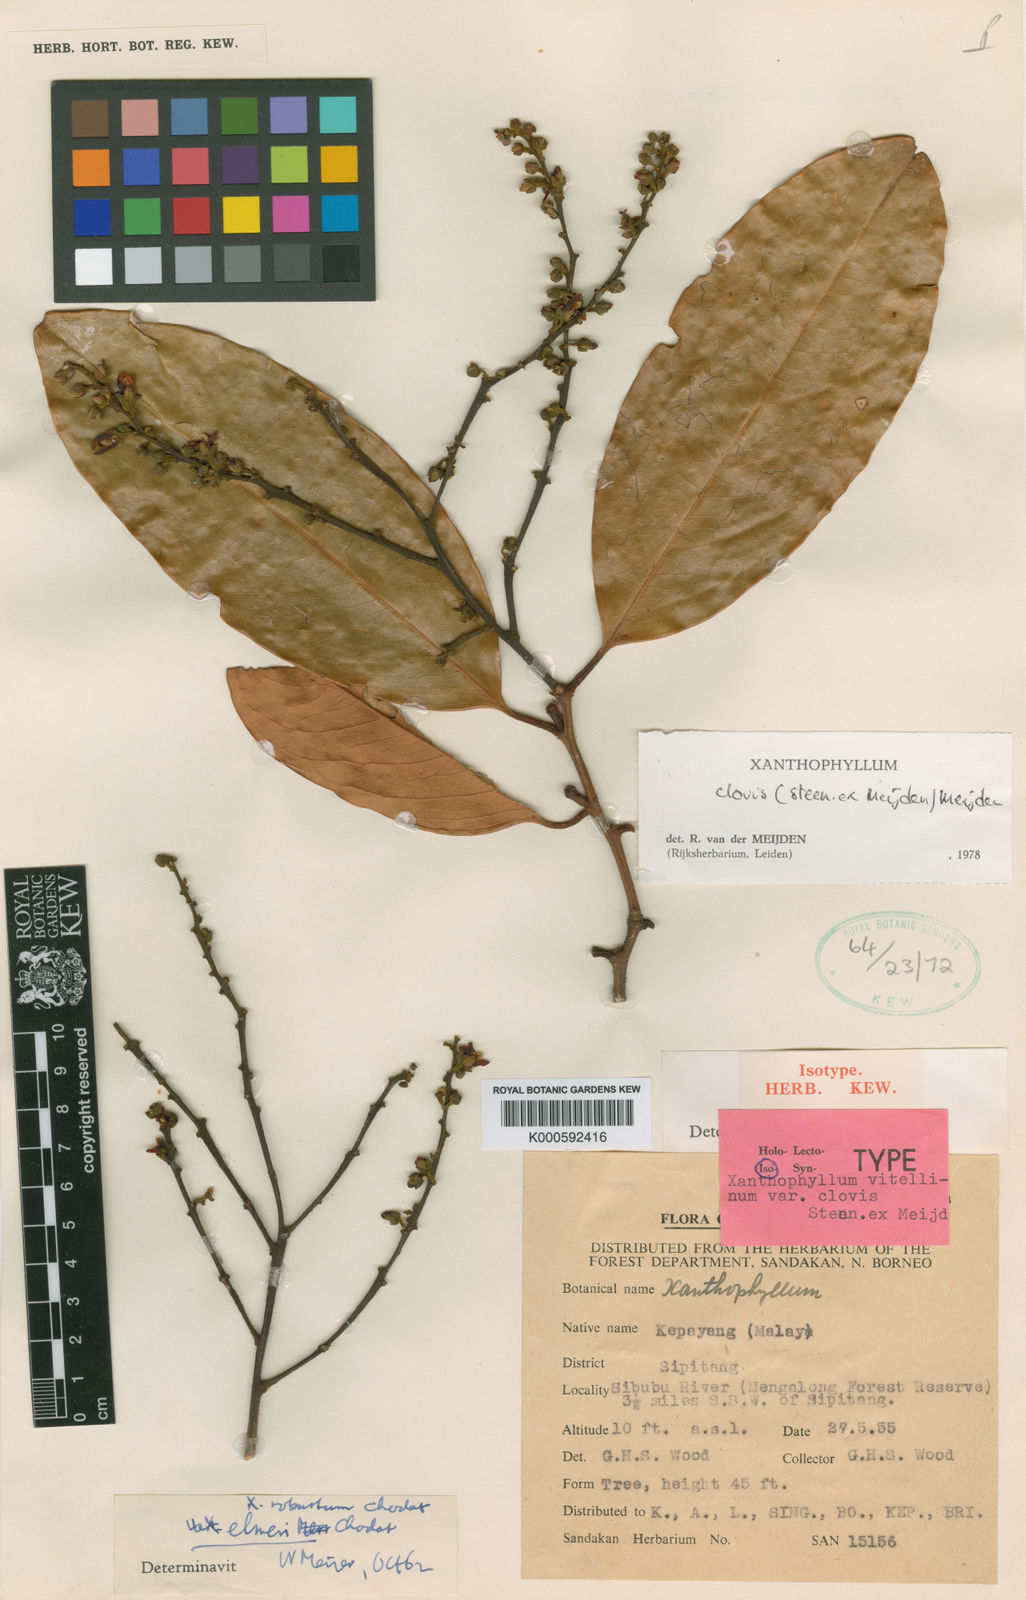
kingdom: Plantae
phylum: Tracheophyta
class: Magnoliopsida
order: Fabales
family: Polygalaceae
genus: Xanthophyllum
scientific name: Xanthophyllum clovis
